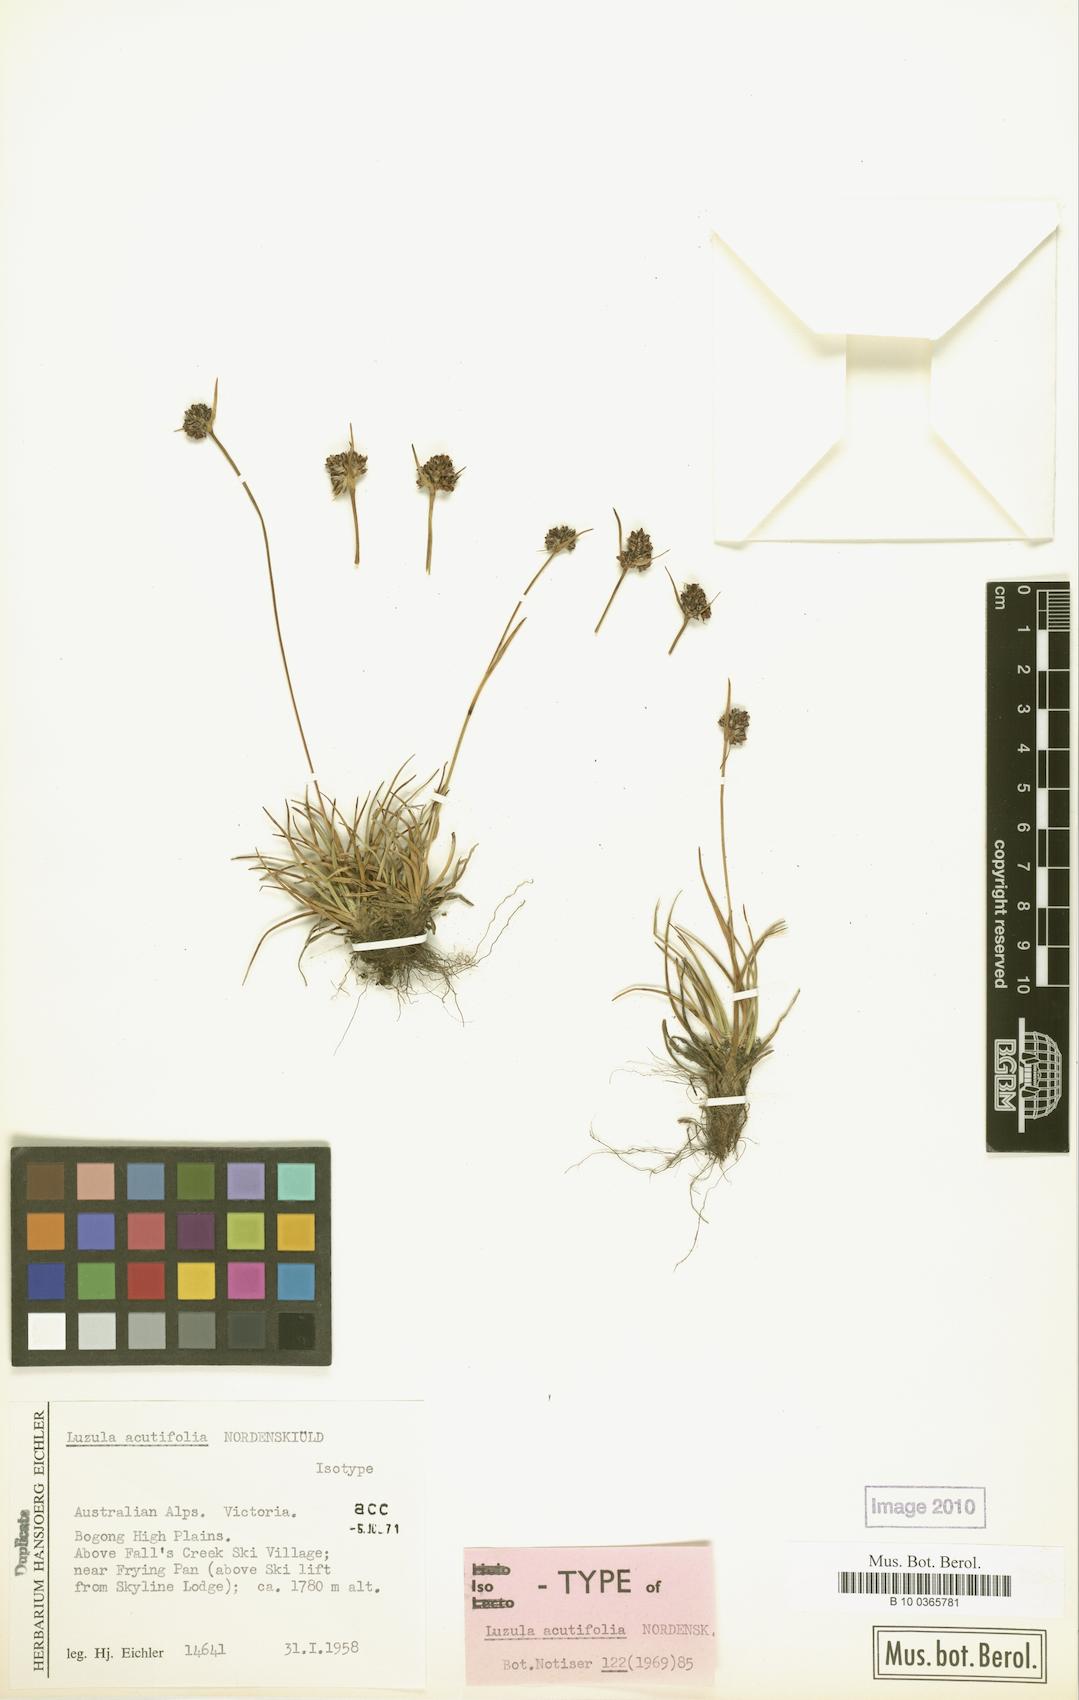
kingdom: Plantae
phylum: Tracheophyta
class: Liliopsida
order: Poales
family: Juncaceae
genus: Luzula
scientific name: Luzula acutifolia
